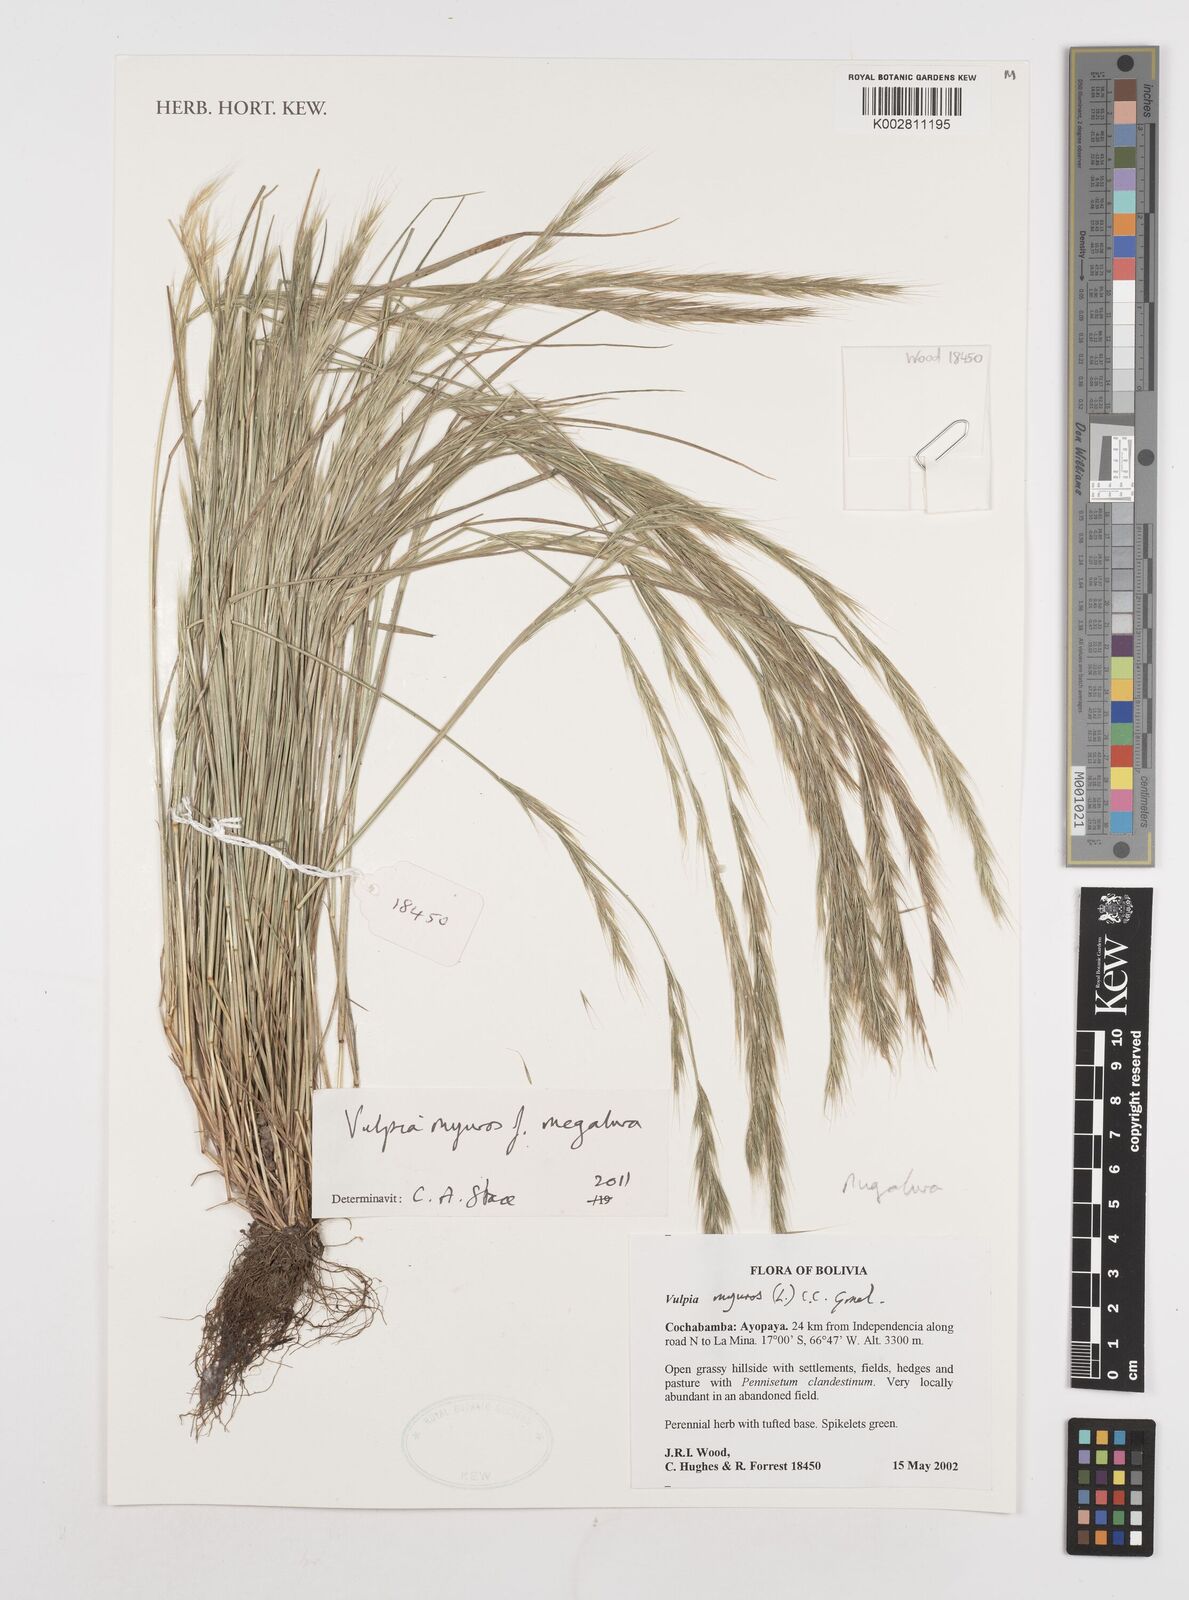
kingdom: Plantae
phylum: Tracheophyta
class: Liliopsida
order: Poales
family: Poaceae
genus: Festuca
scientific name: Festuca myuros
